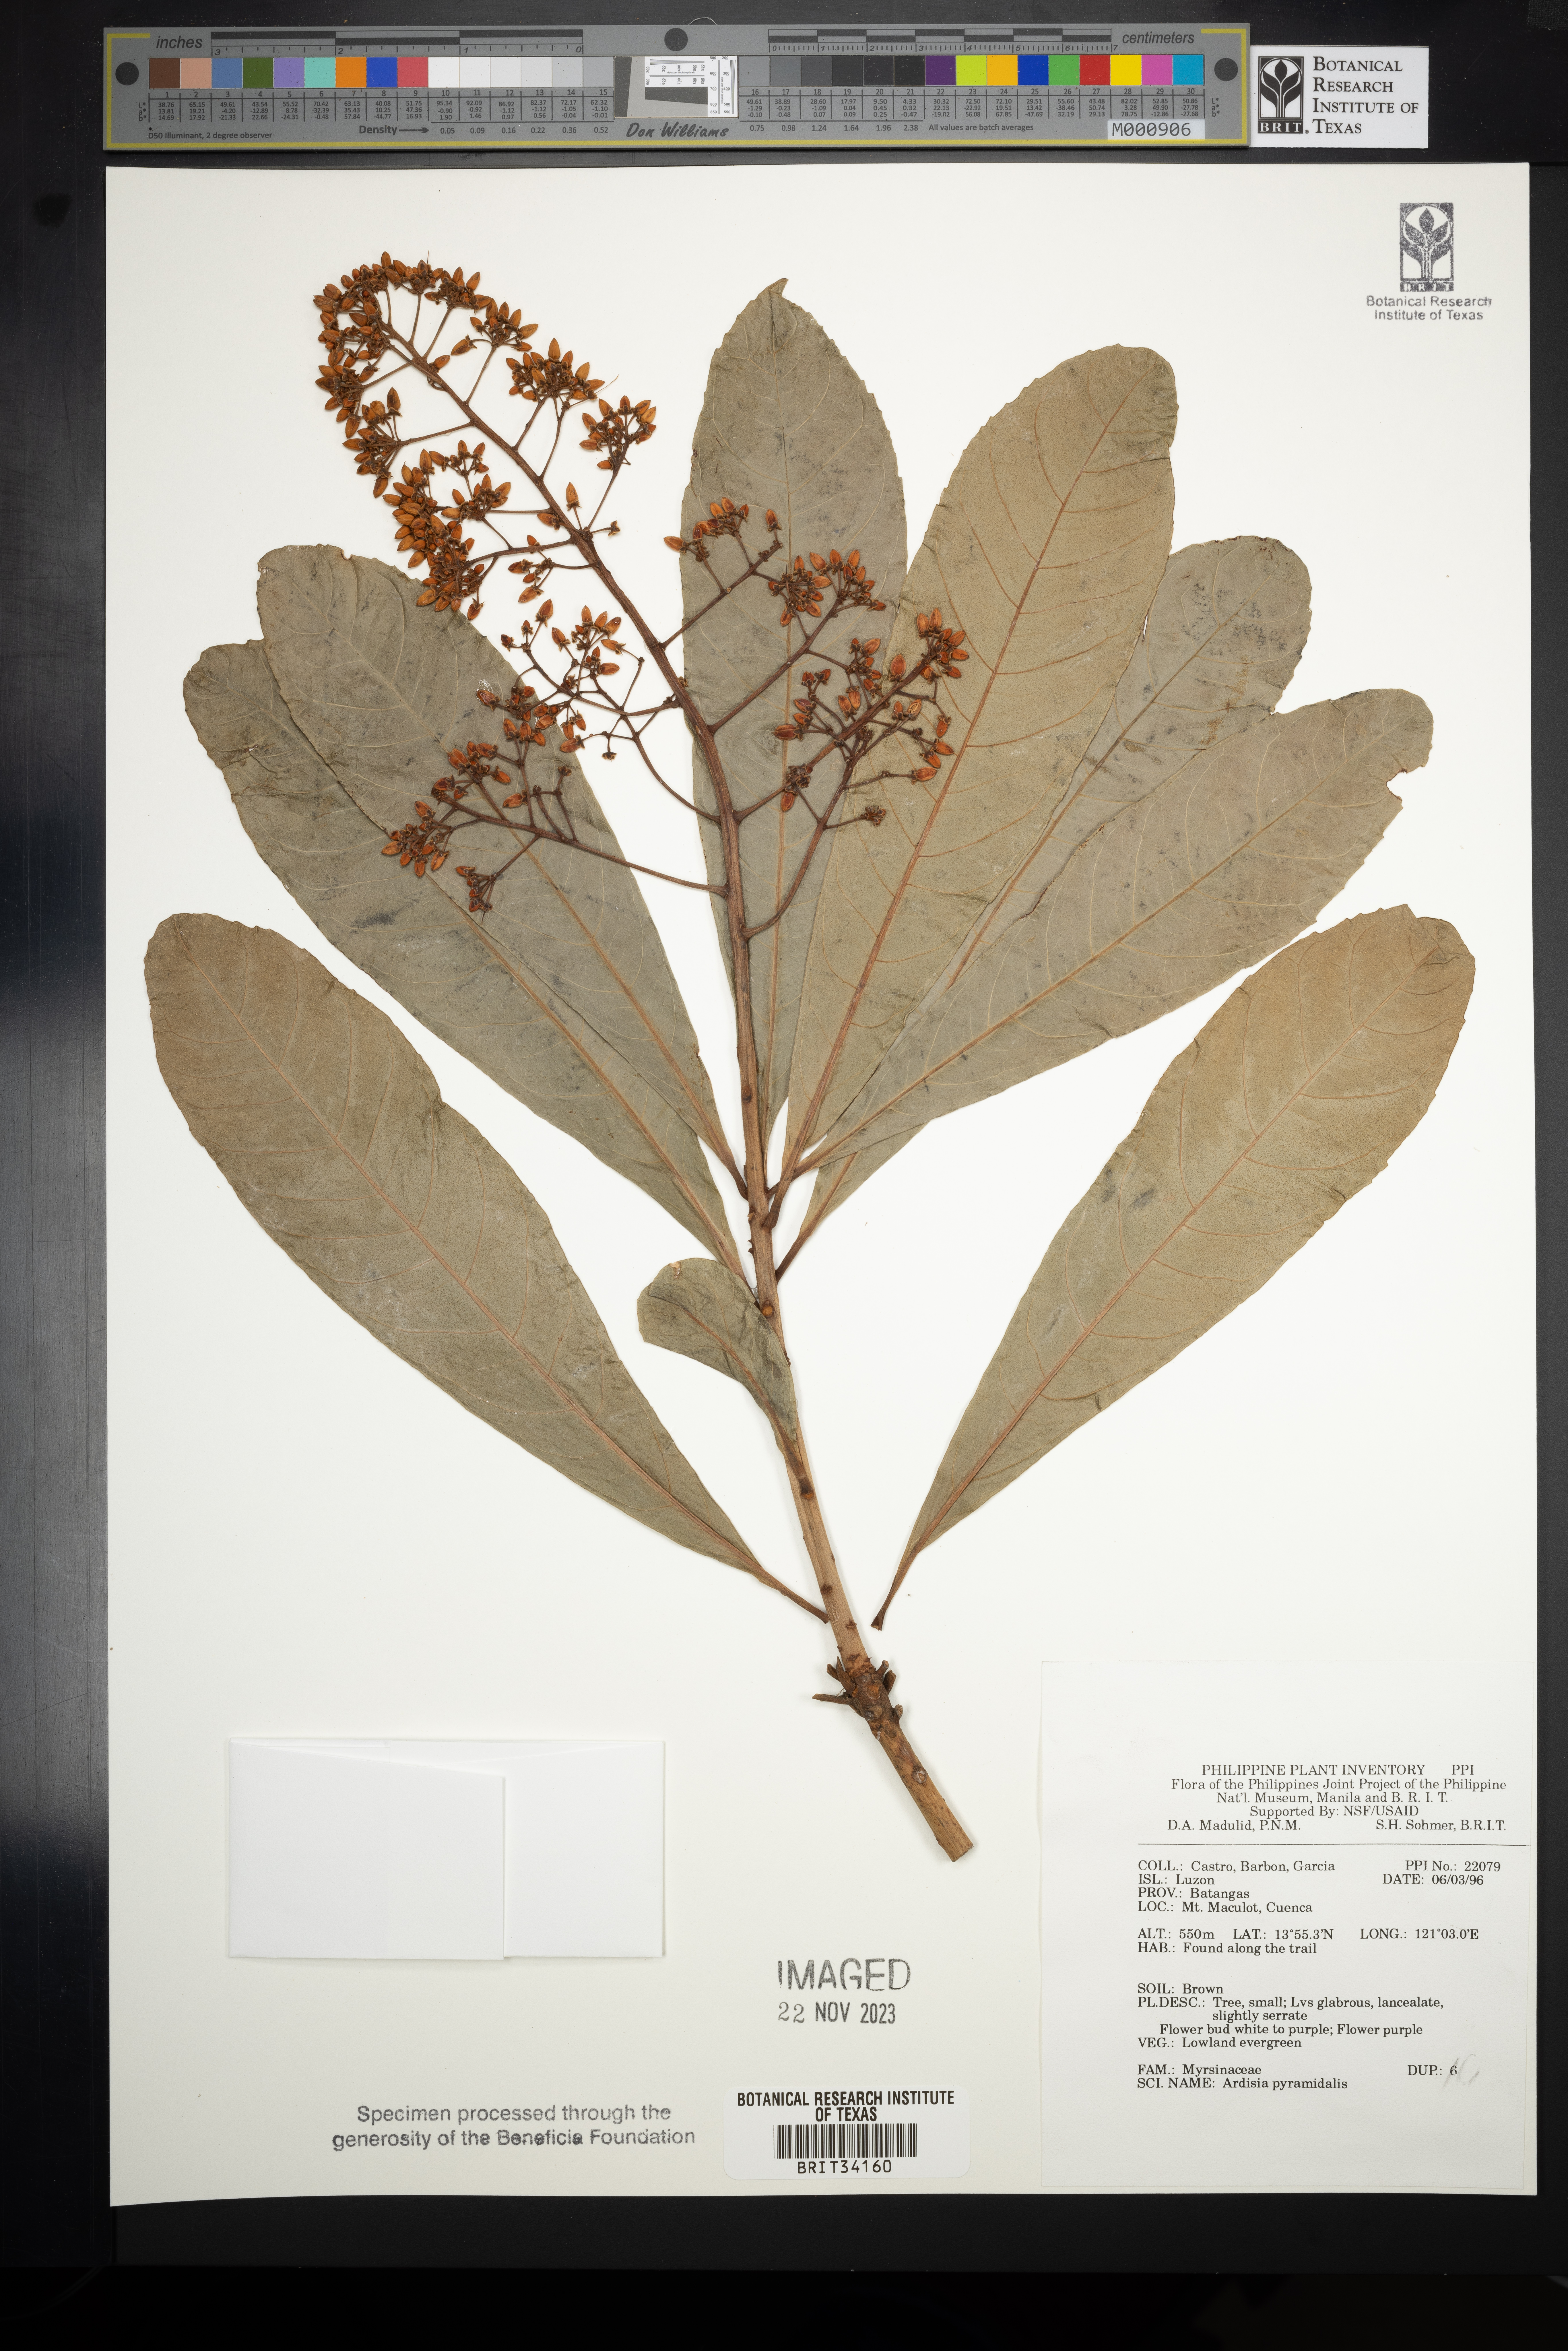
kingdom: Plantae
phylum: Tracheophyta
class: Magnoliopsida
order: Ericales
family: Primulaceae
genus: Ardisia
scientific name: Ardisia pyramidalis
